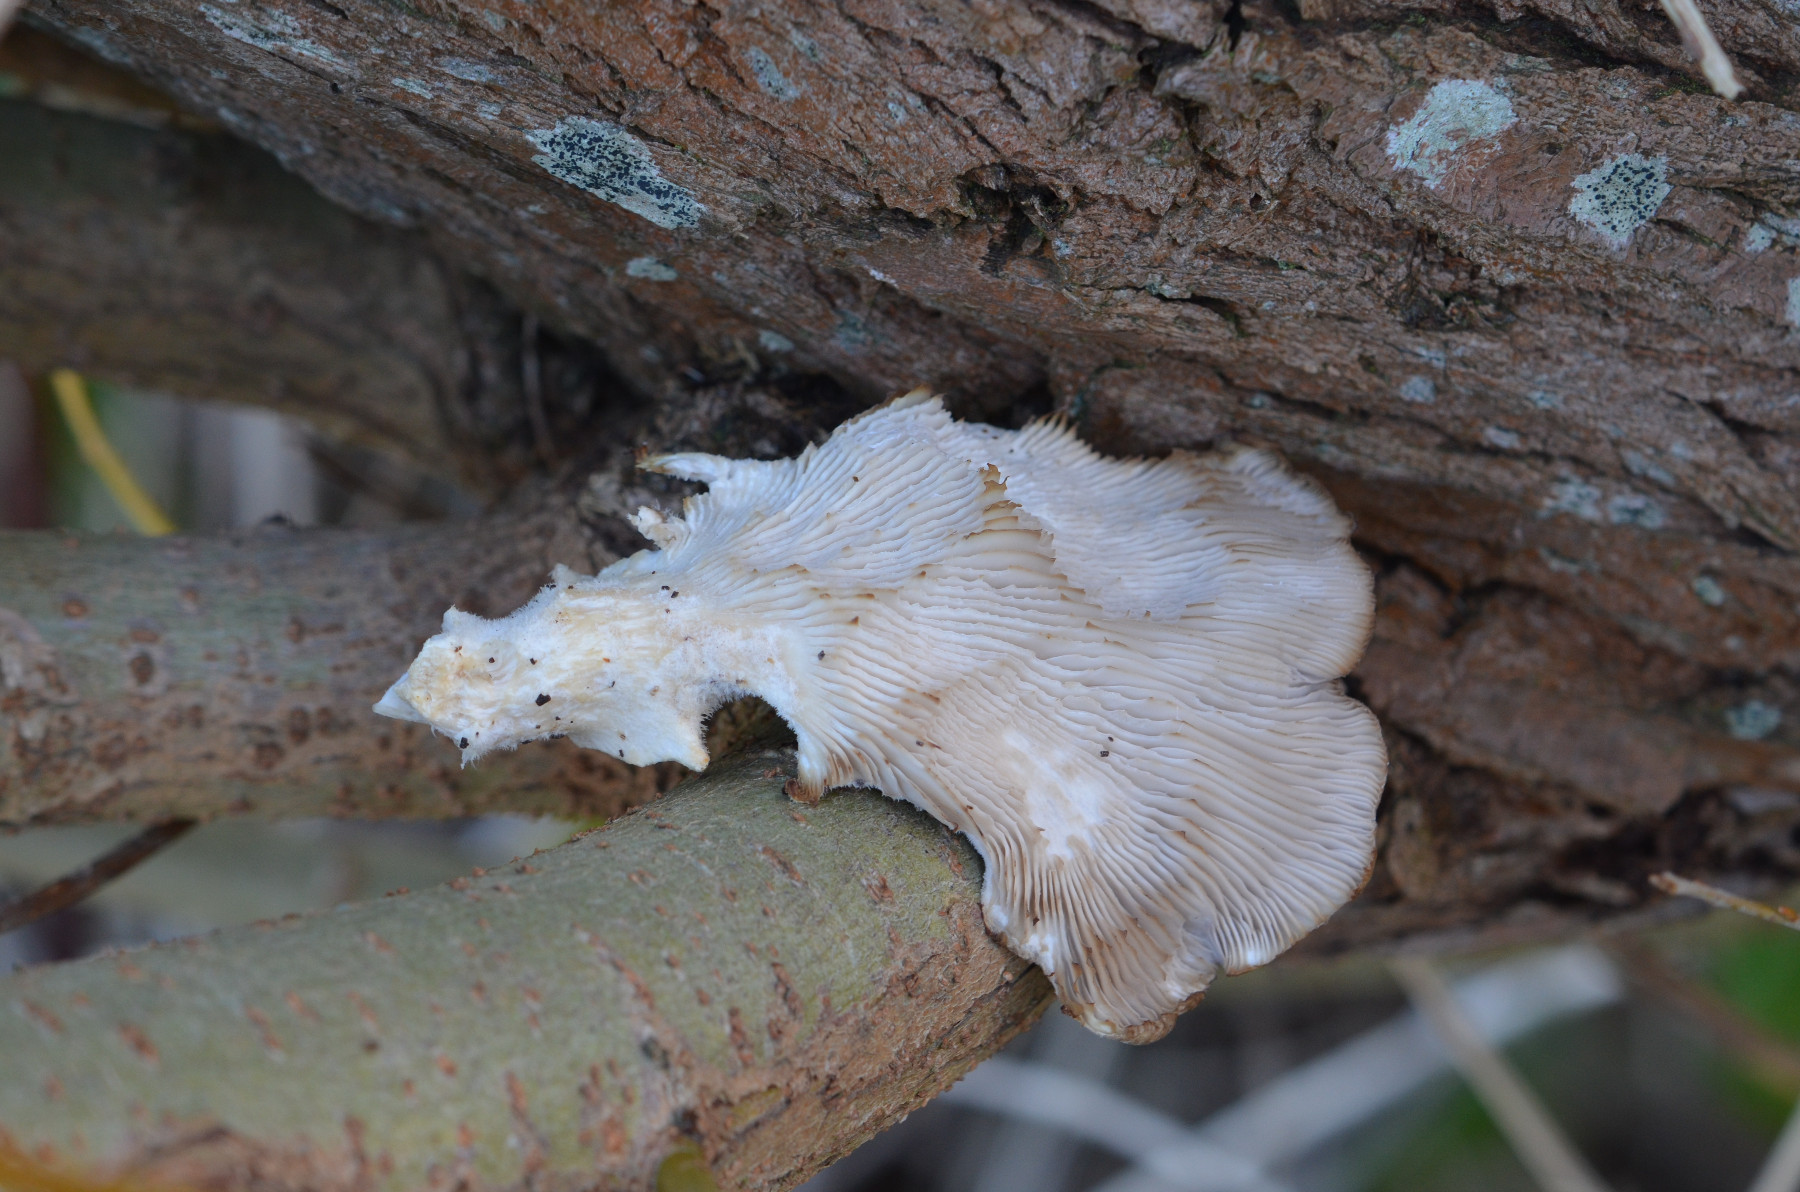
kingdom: Fungi
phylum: Basidiomycota
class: Agaricomycetes
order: Agaricales
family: Pleurotaceae
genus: Pleurotus
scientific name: Pleurotus ostreatus
